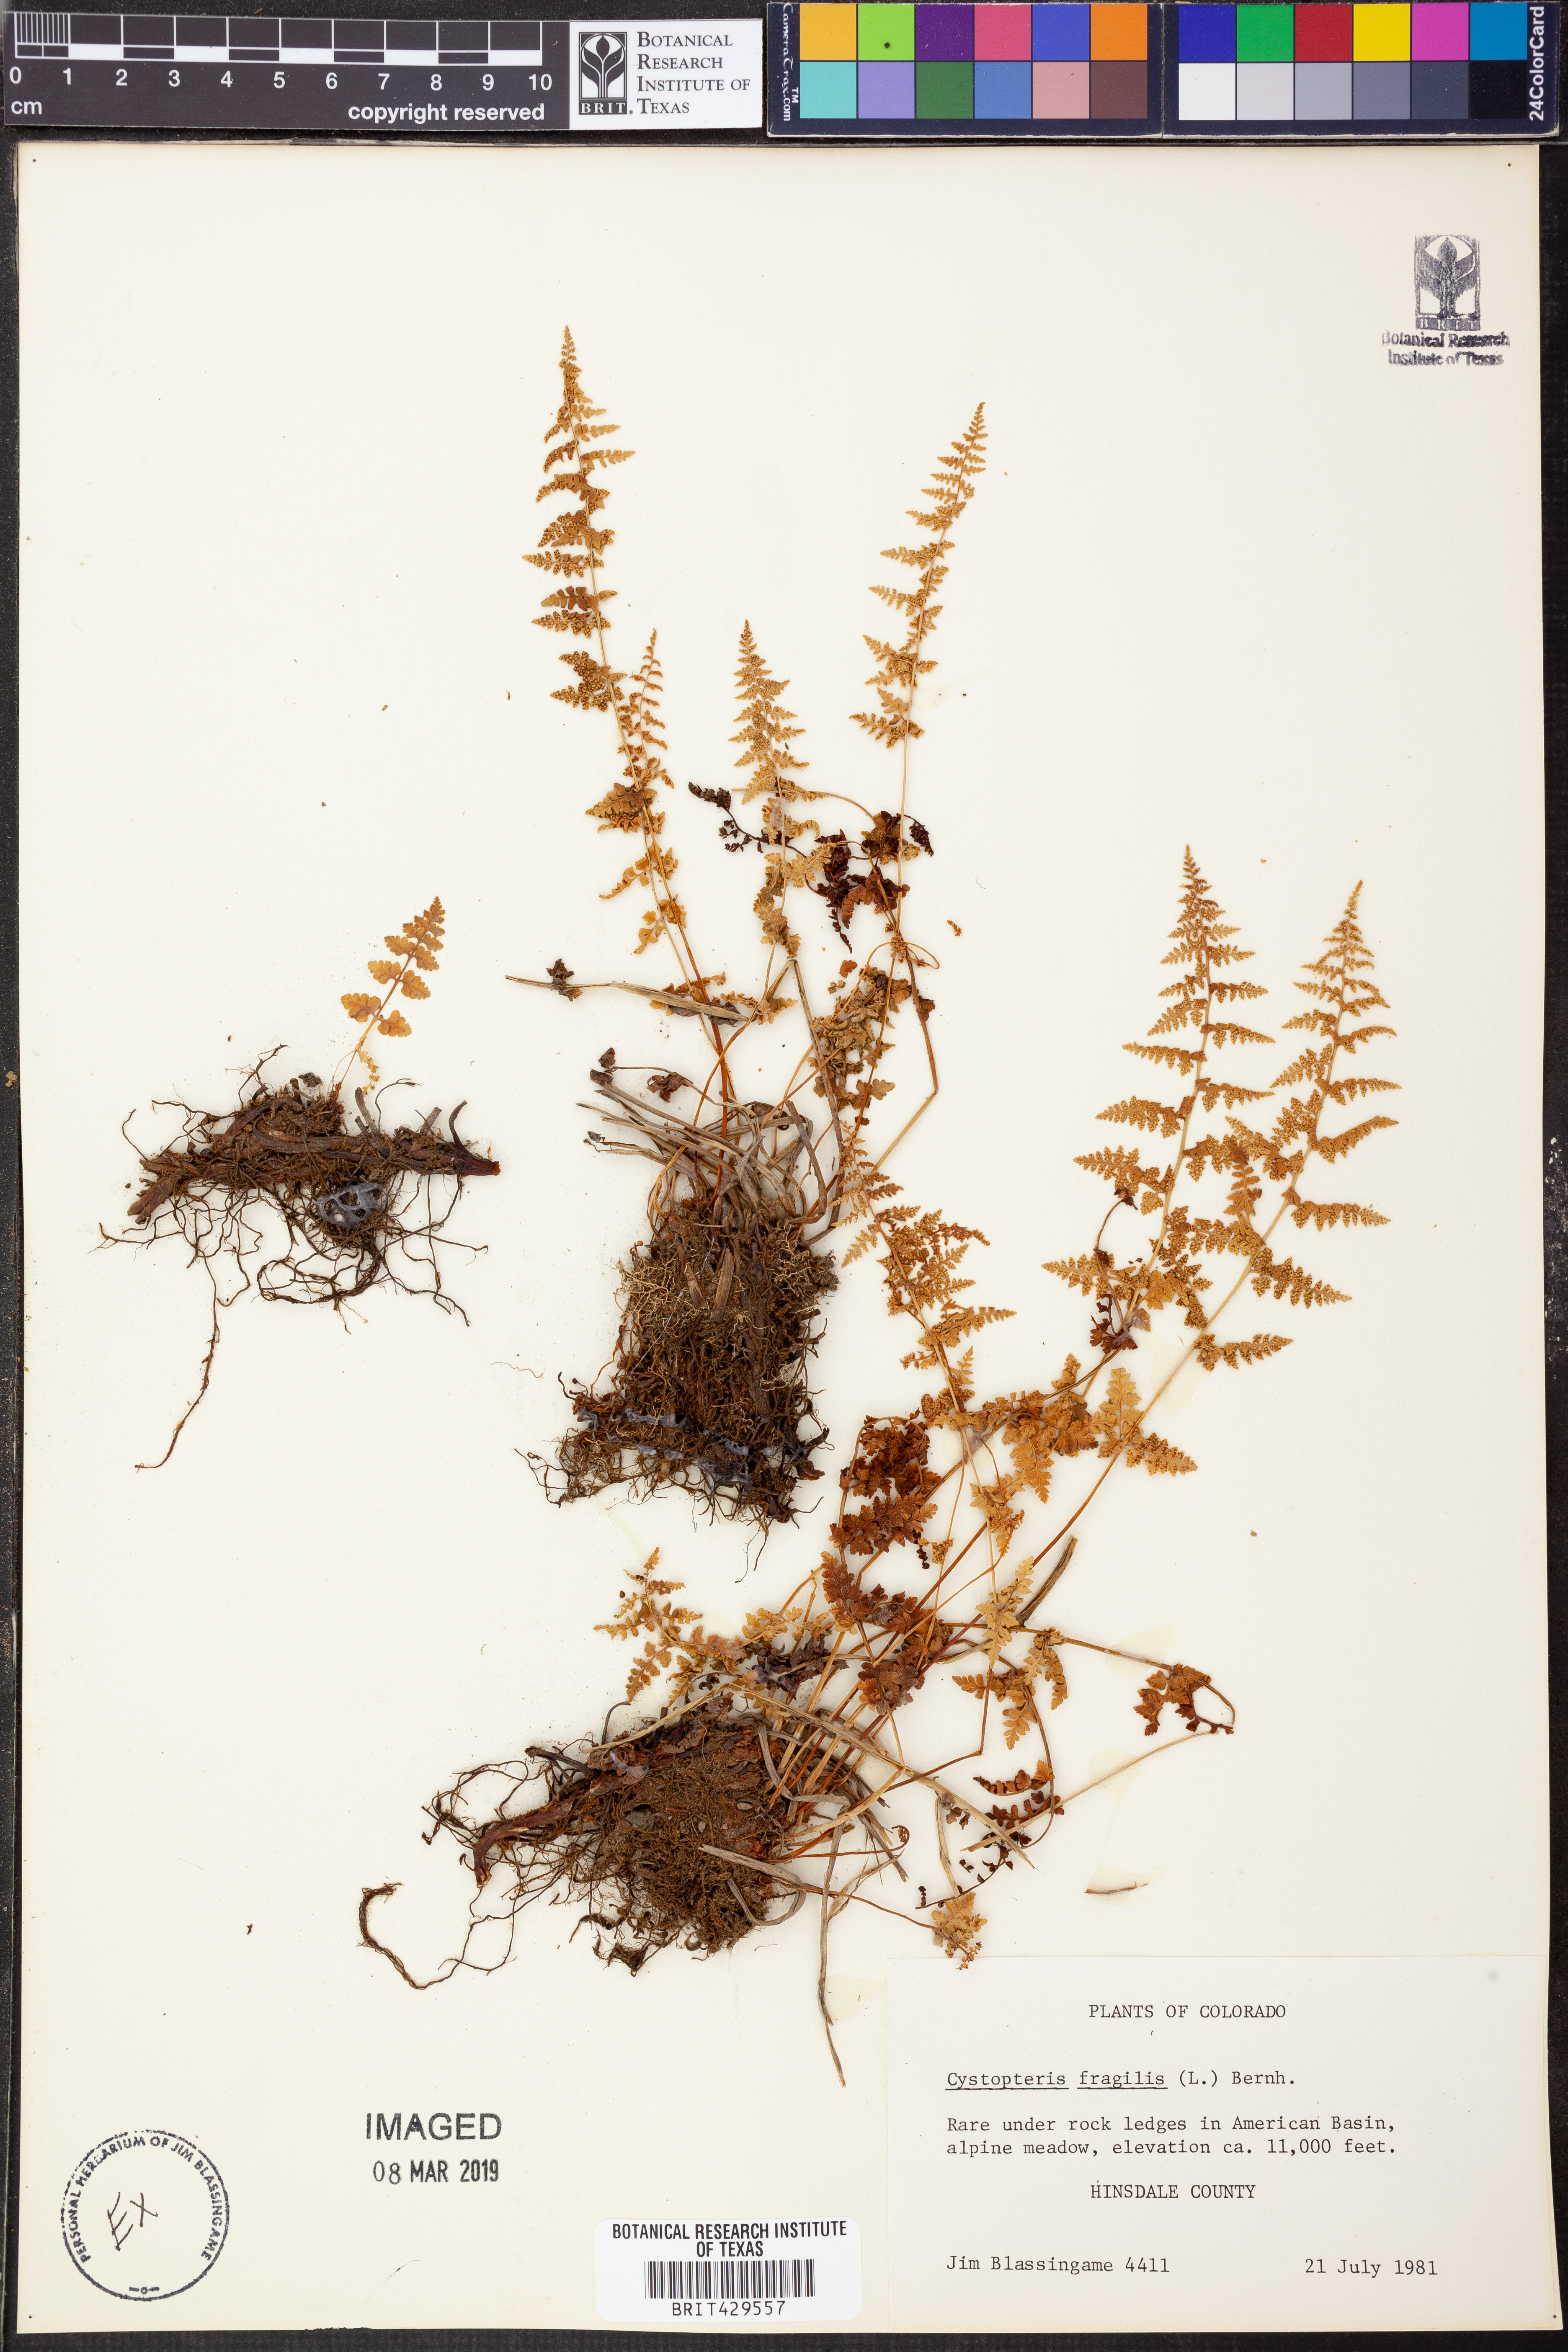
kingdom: Plantae
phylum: Tracheophyta
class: Polypodiopsida
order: Polypodiales
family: Cystopteridaceae
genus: Cystopteris
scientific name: Cystopteris fragilis
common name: Brittle bladder fern
